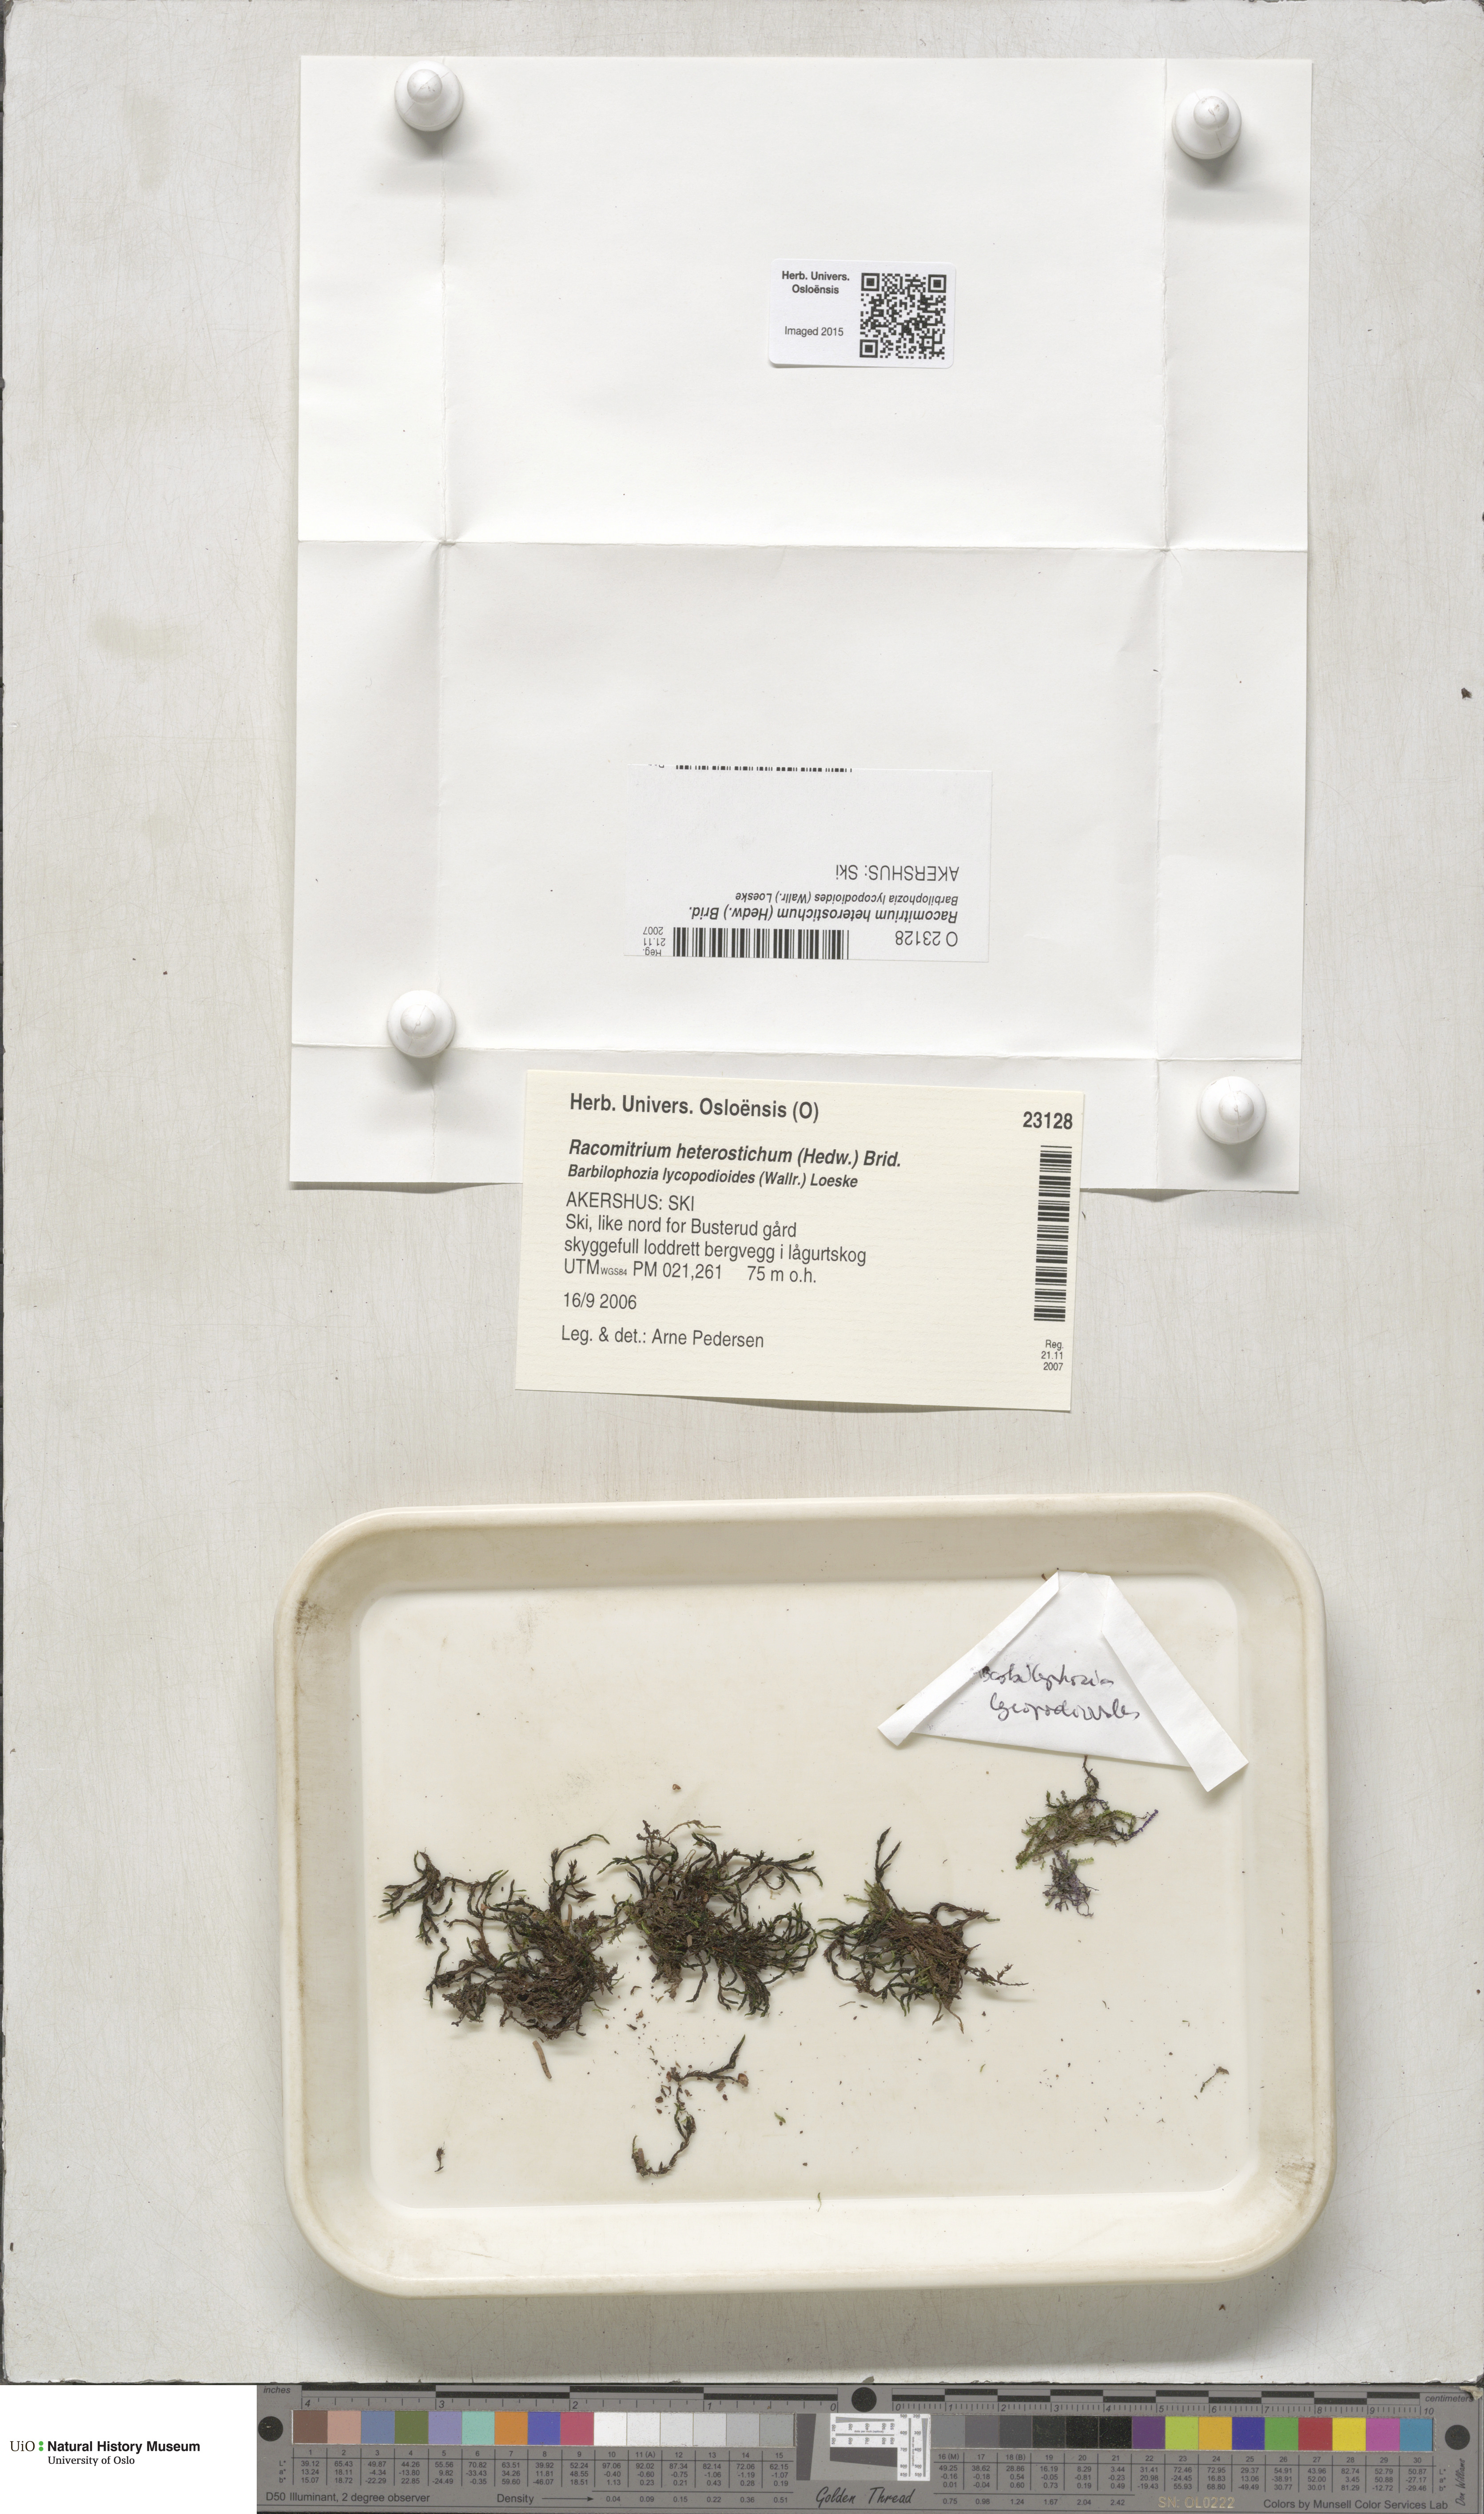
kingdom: Plantae
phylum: Bryophyta
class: Bryopsida
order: Grimmiales
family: Grimmiaceae
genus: Bucklandiella
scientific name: Bucklandiella heterosticha
